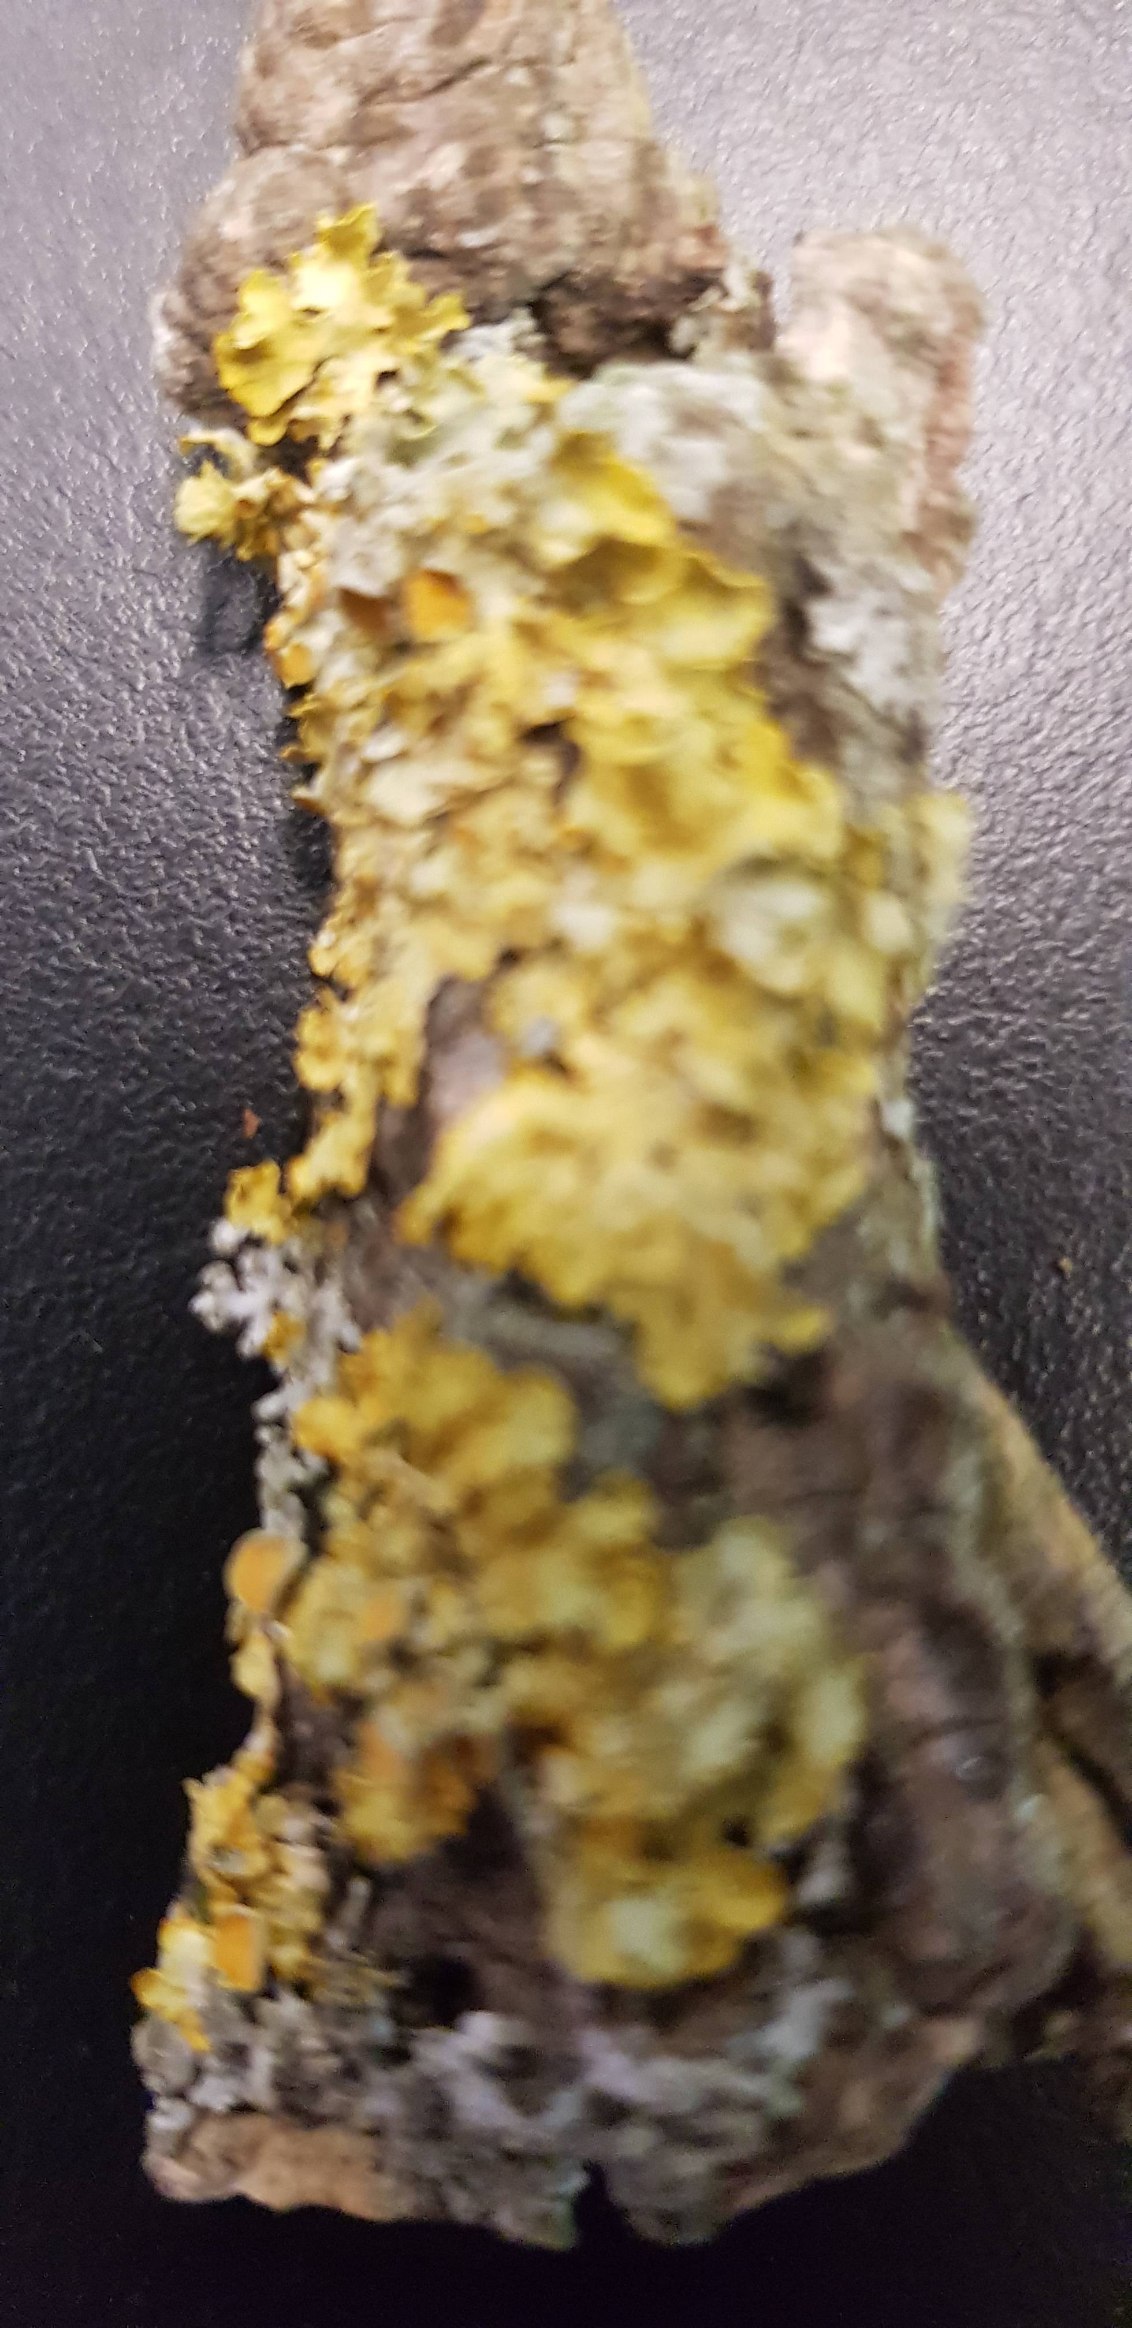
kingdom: Fungi
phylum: Ascomycota
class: Lecanoromycetes
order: Teloschistales
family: Teloschistaceae
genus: Xanthoria
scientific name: Xanthoria parietina
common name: Almindelig væggelav
